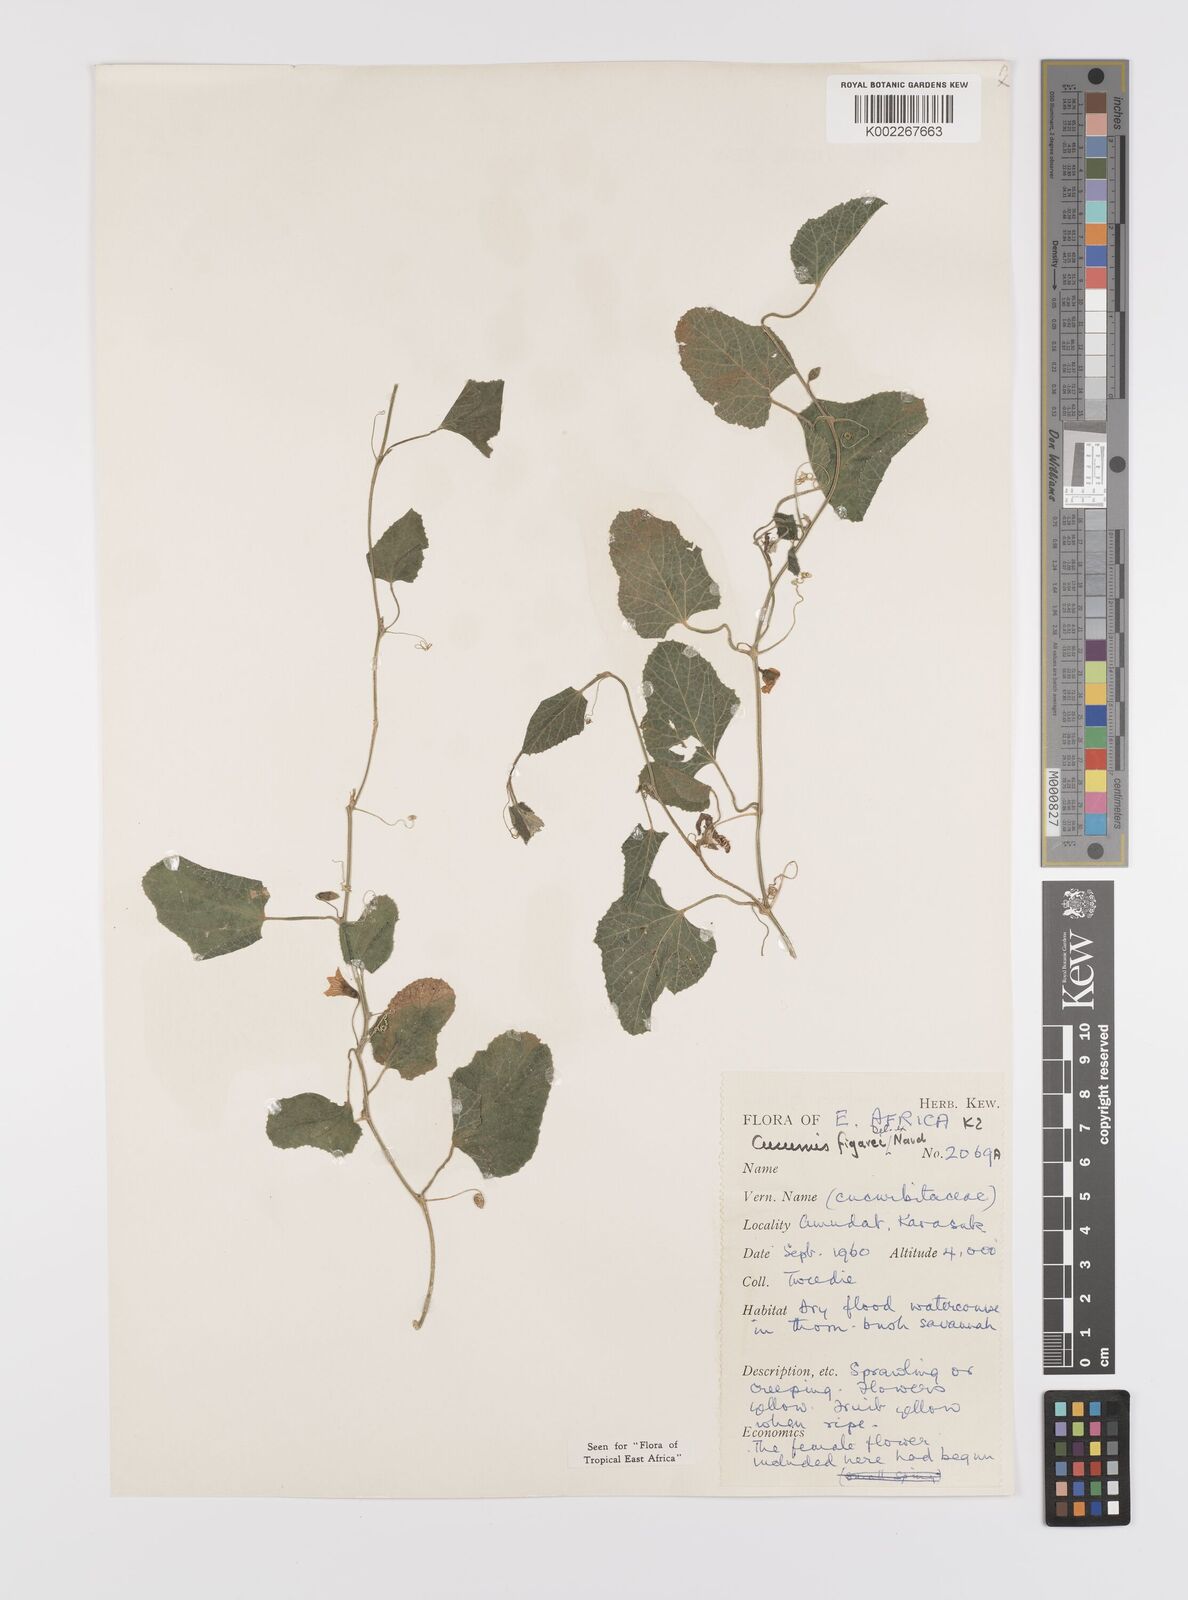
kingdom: Plantae
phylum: Tracheophyta
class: Magnoliopsida
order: Cucurbitales
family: Cucurbitaceae
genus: Cucumis
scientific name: Cucumis pustulatus
